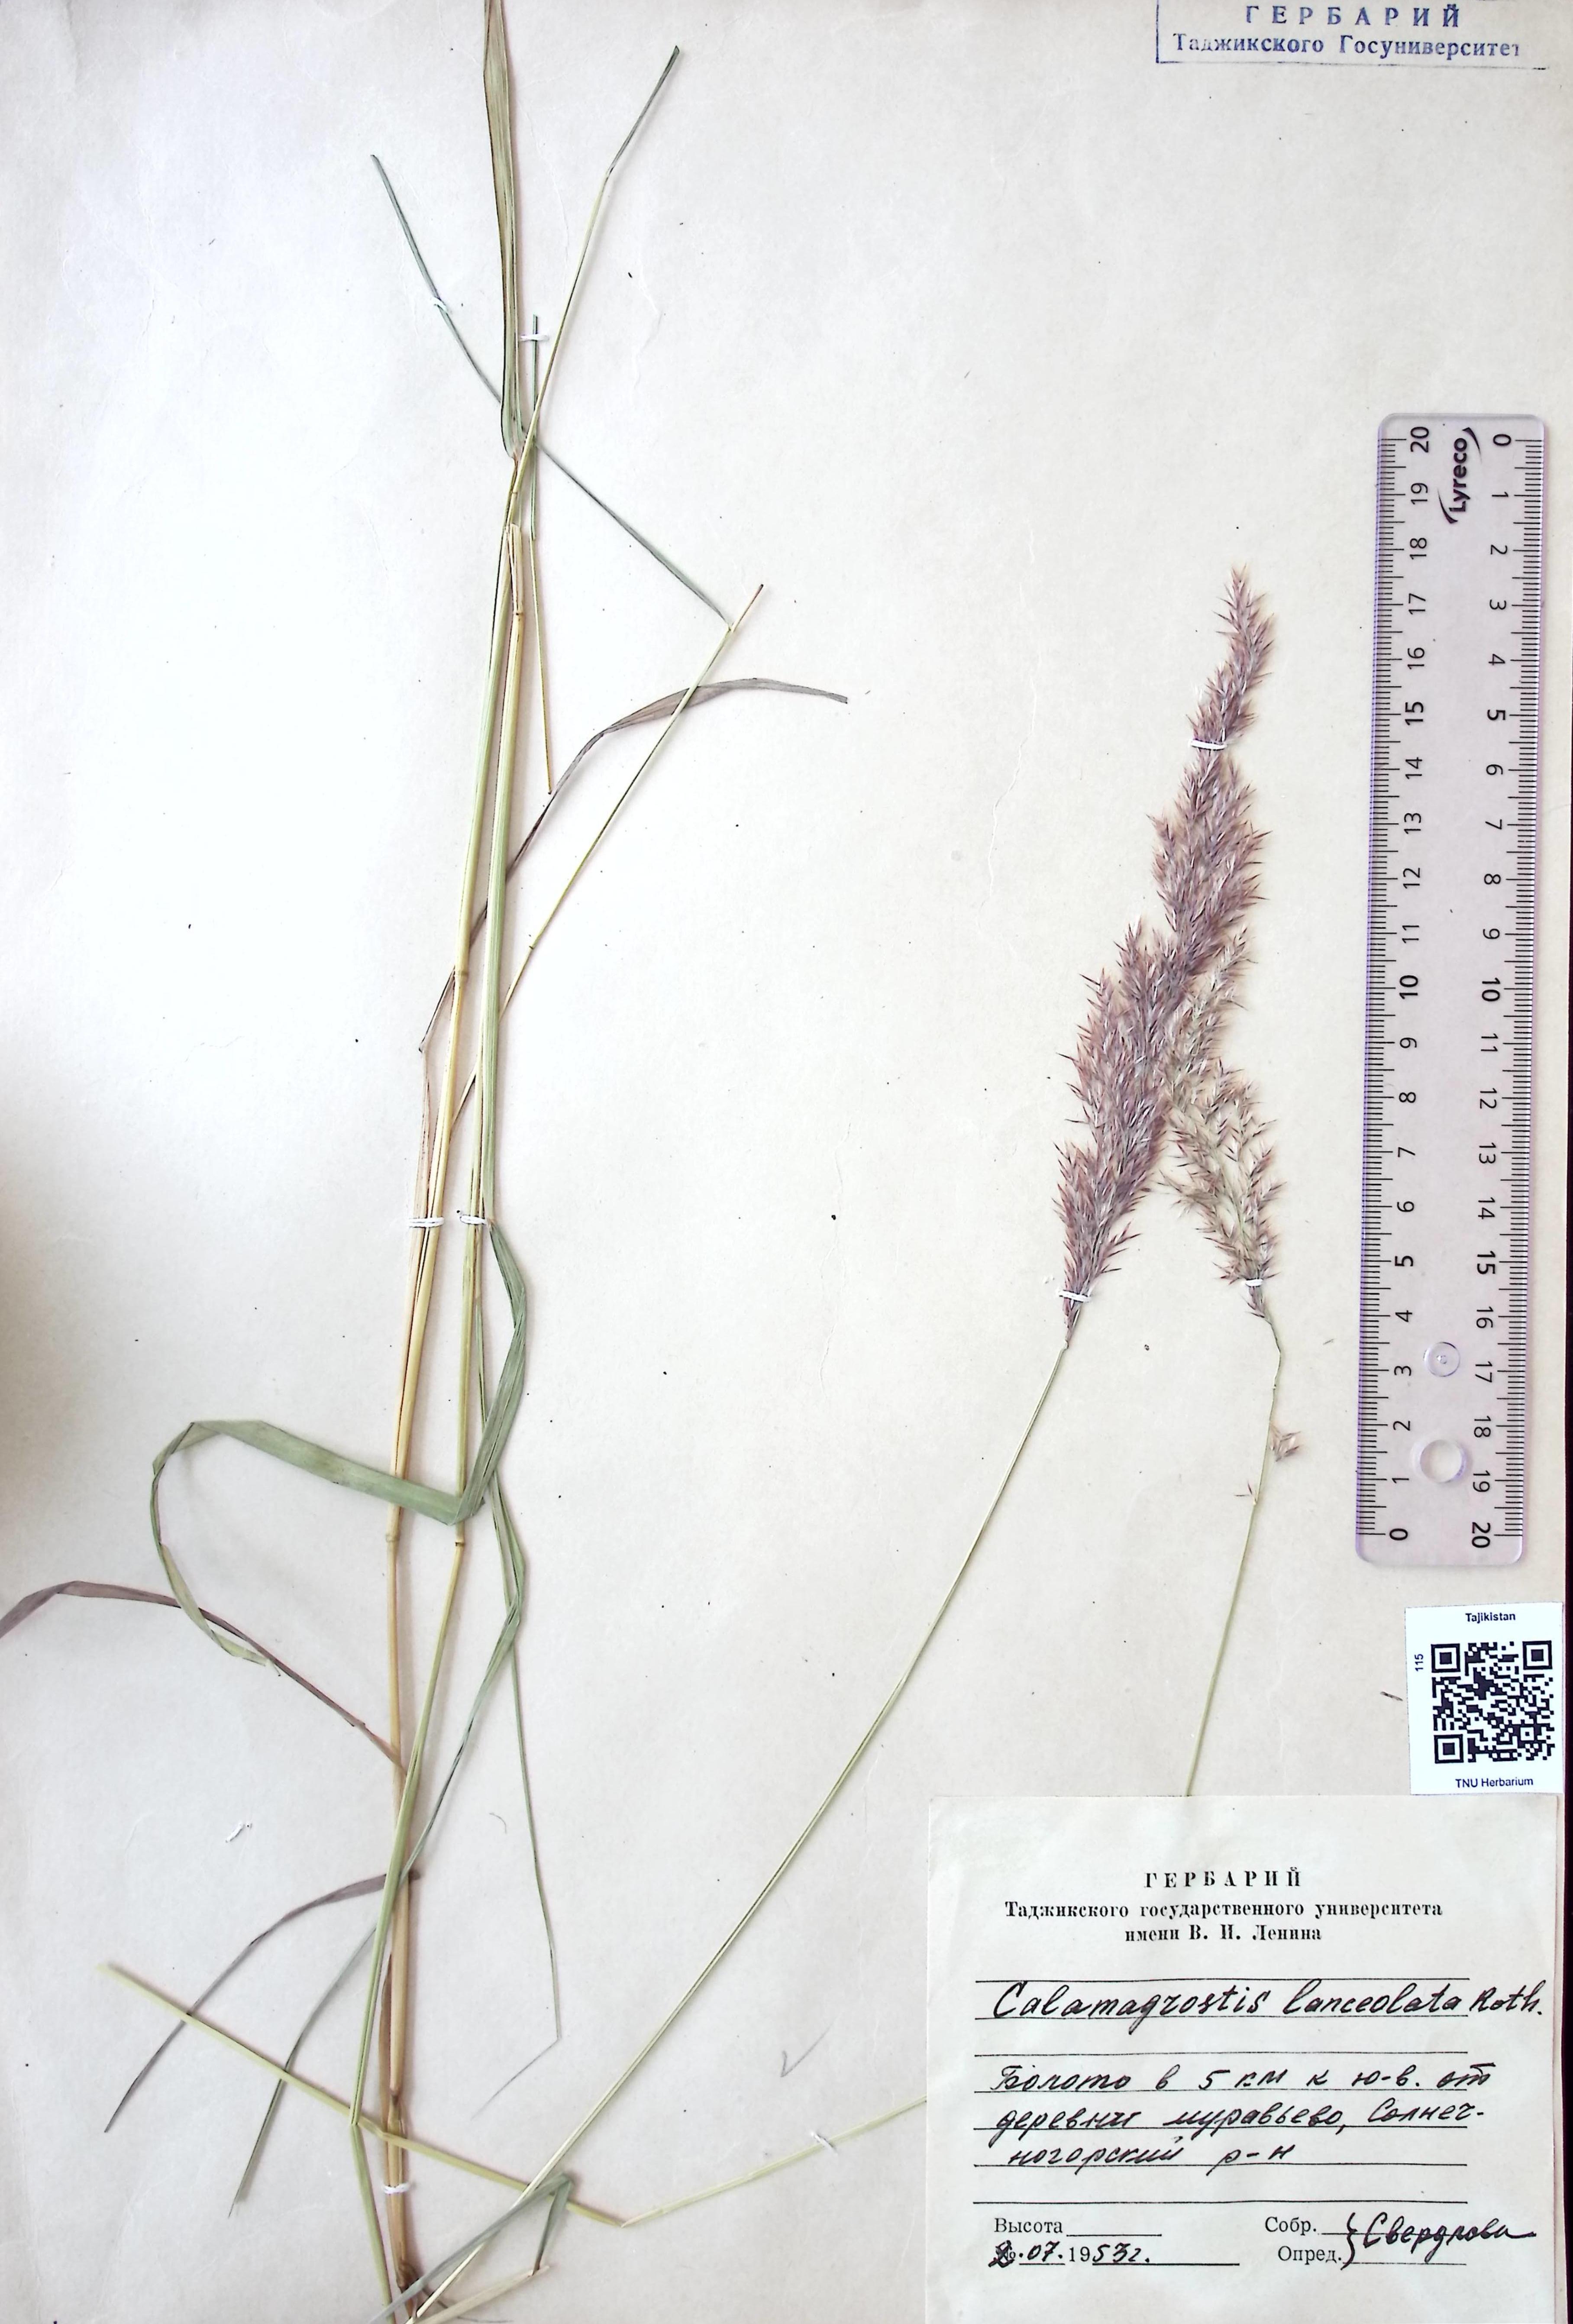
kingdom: Plantae
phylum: Tracheophyta
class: Liliopsida
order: Poales
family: Poaceae
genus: Calamagrostis
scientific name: Calamagrostis canescens
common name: Purple small-reed
